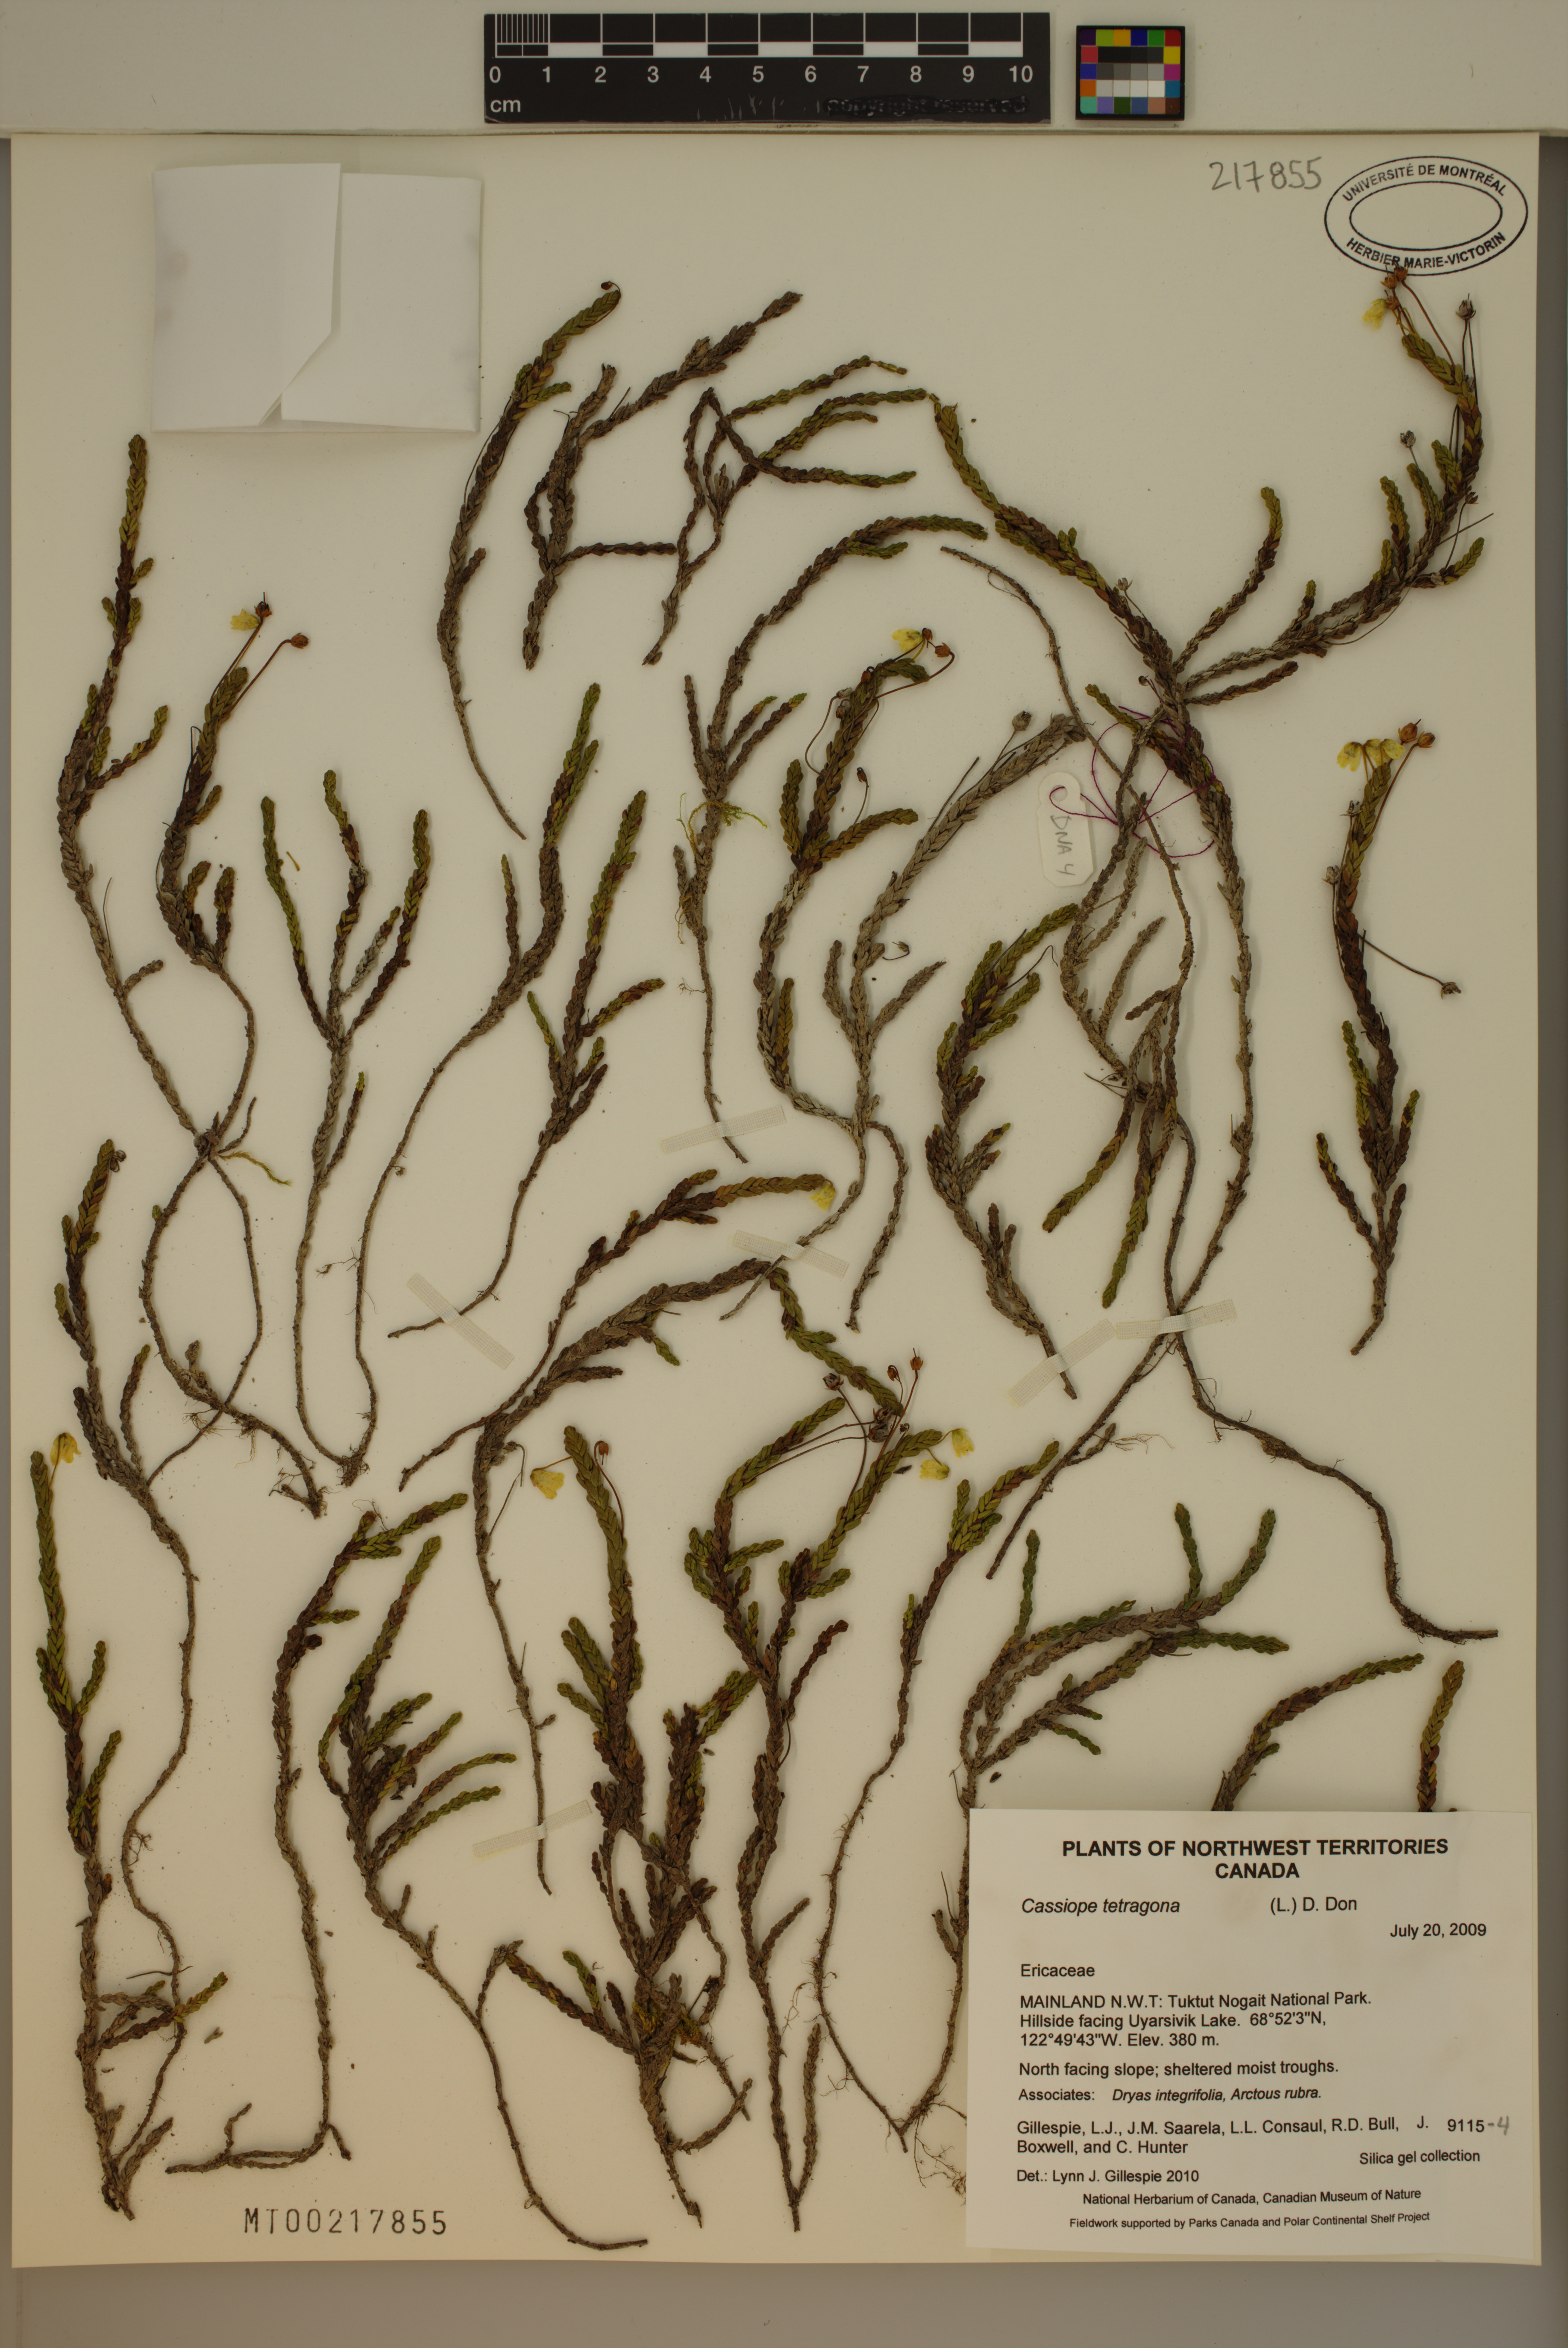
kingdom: Plantae
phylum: Tracheophyta
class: Magnoliopsida
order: Ericales
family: Ericaceae
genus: Cassiope
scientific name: Cassiope tetragona
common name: Arctic bell heather
